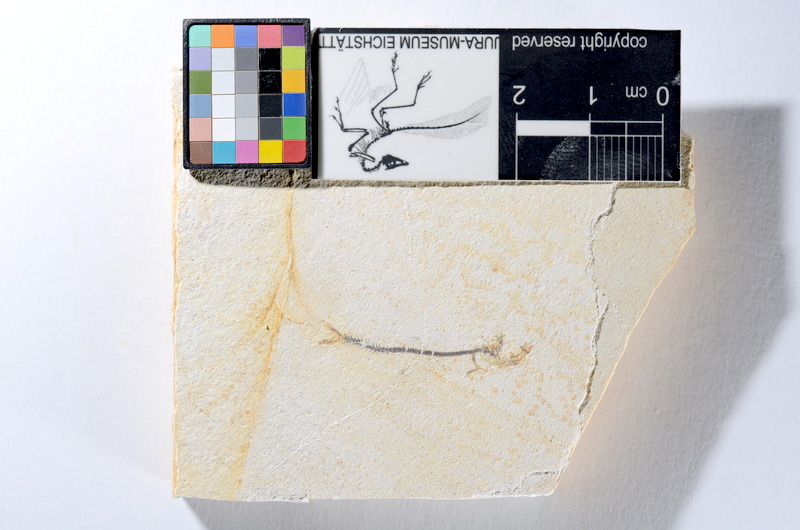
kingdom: Animalia
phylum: Chordata
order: Salmoniformes
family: Orthogonikleithridae
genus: Orthogonikleithrus
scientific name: Orthogonikleithrus hoelli
